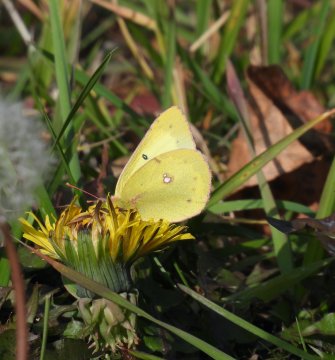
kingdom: Animalia
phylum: Arthropoda
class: Insecta
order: Lepidoptera
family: Pieridae
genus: Colias
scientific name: Colias philodice
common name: Clouded Sulphur
